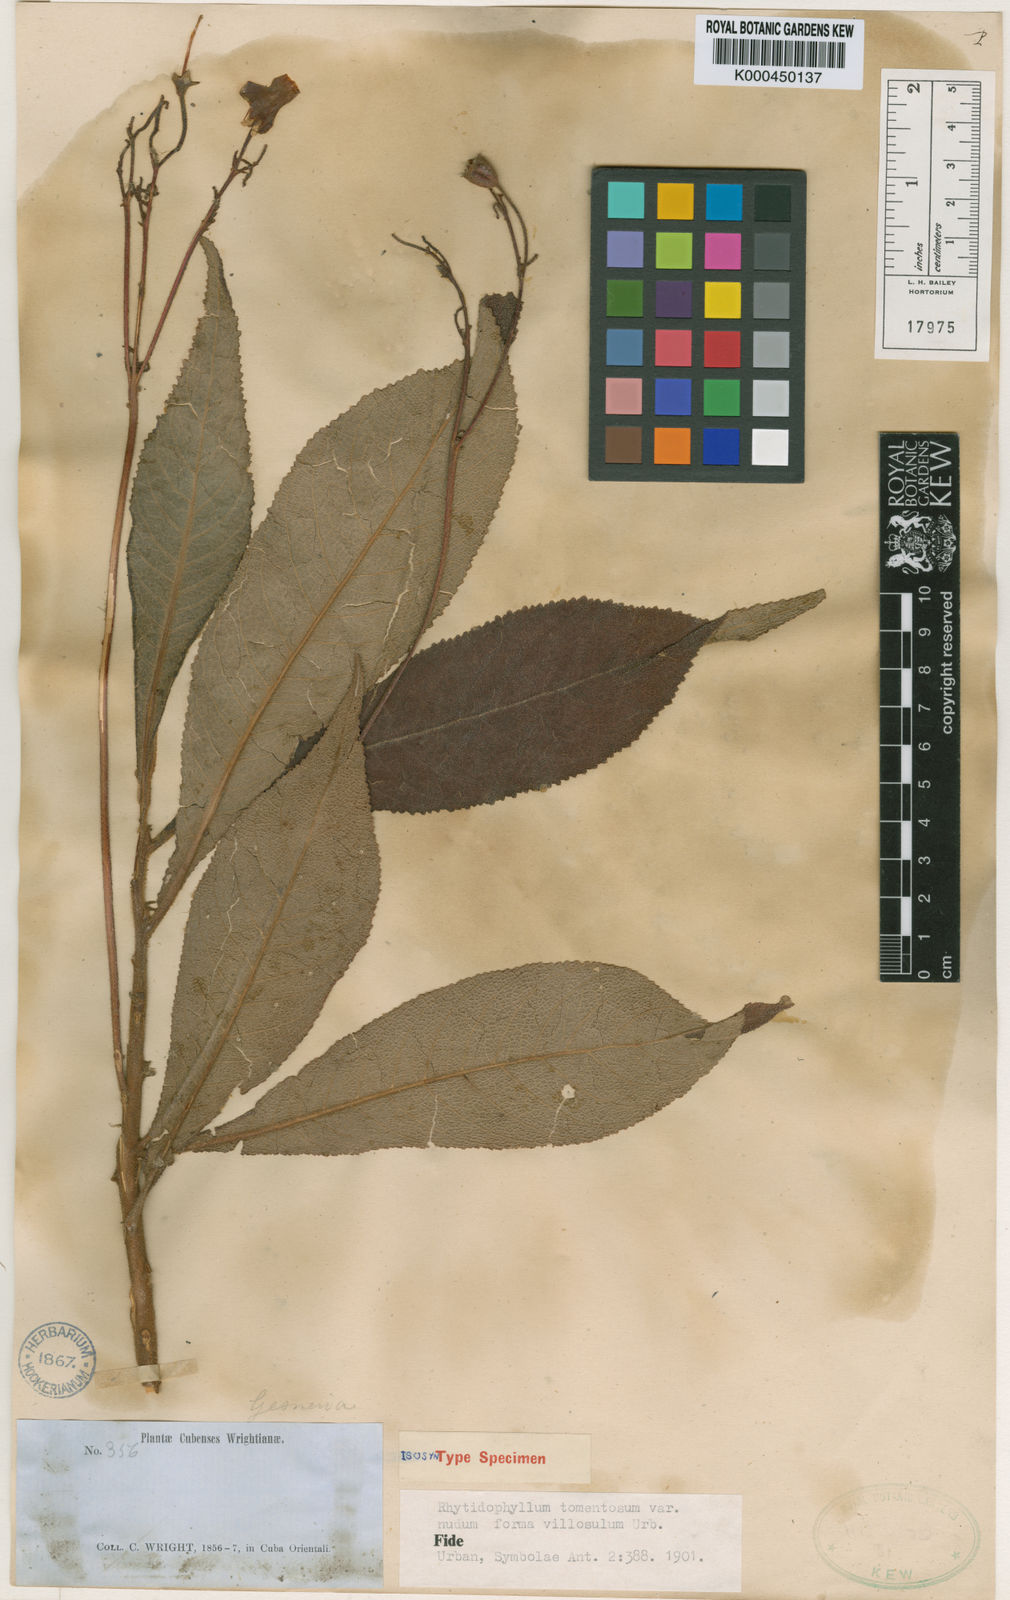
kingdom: Plantae
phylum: Tracheophyta
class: Magnoliopsida
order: Lamiales
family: Gesneriaceae
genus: Rhytidophyllum
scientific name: Rhytidophyllum tomentosum
